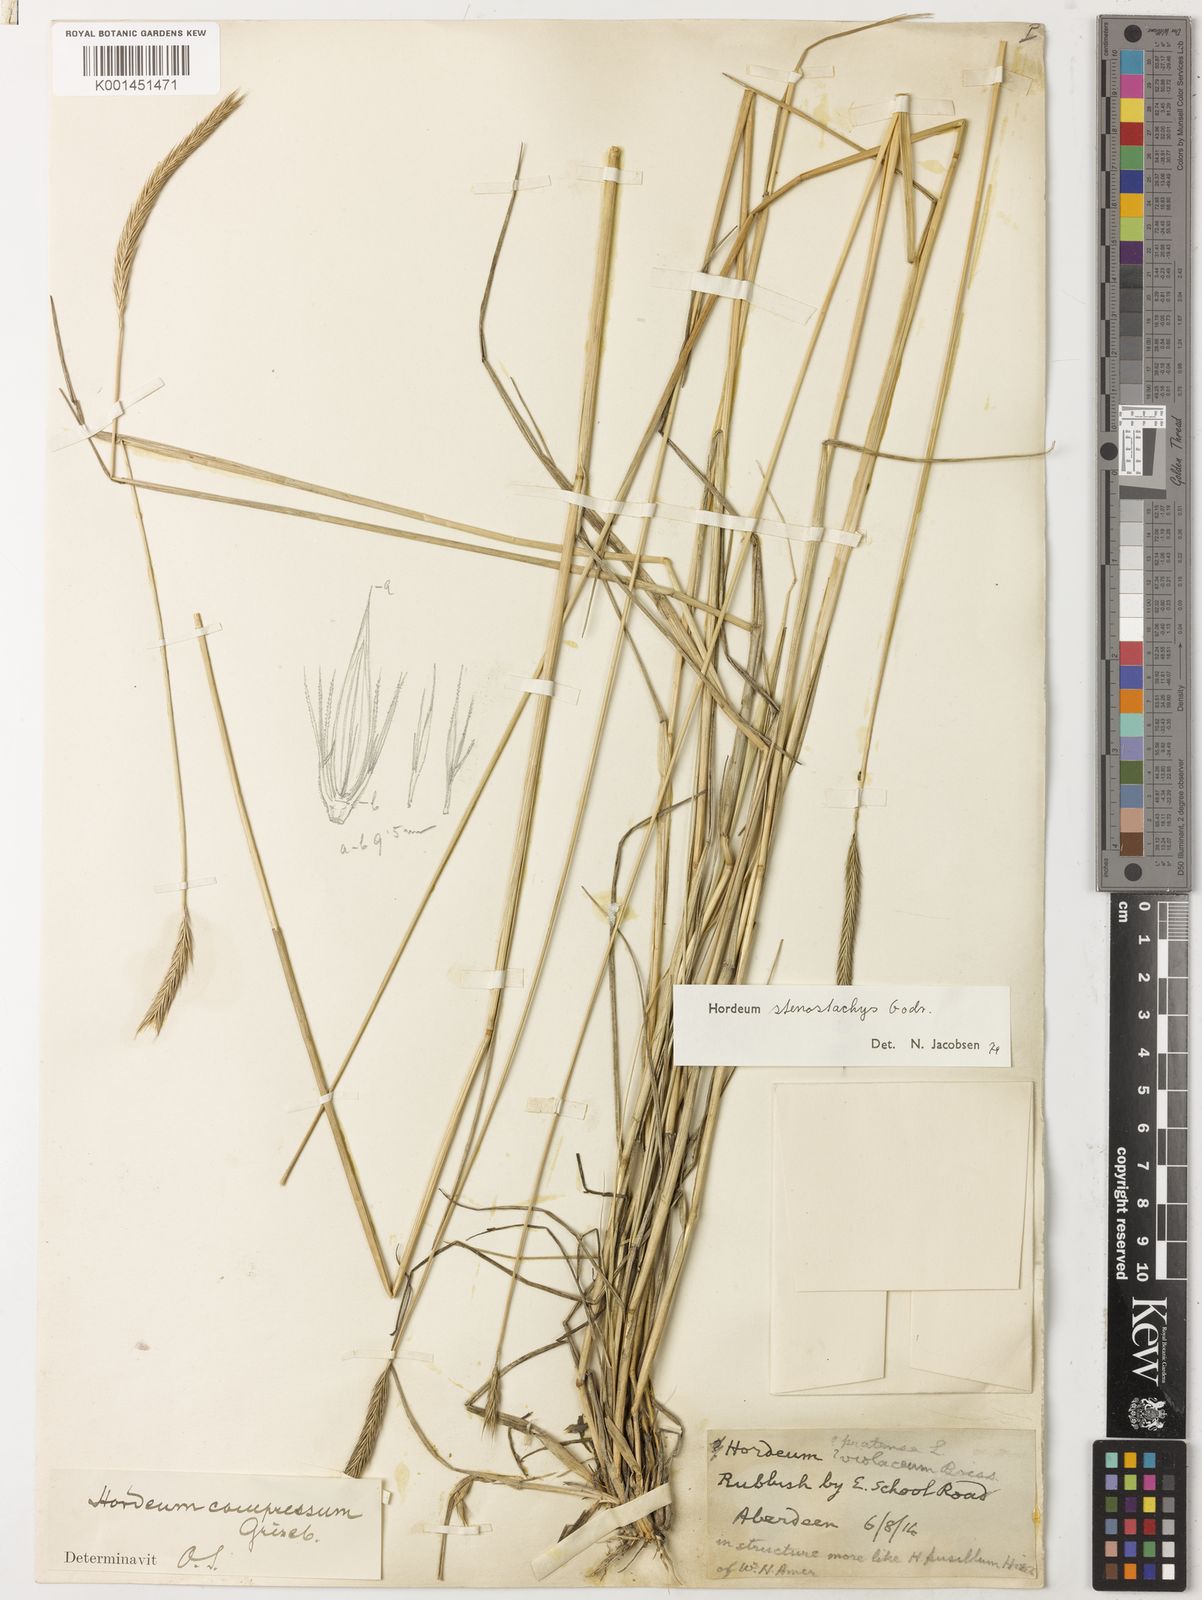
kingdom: Plantae
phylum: Tracheophyta
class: Liliopsida
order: Poales
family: Poaceae
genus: Hordeum
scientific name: Hordeum stenostachys
